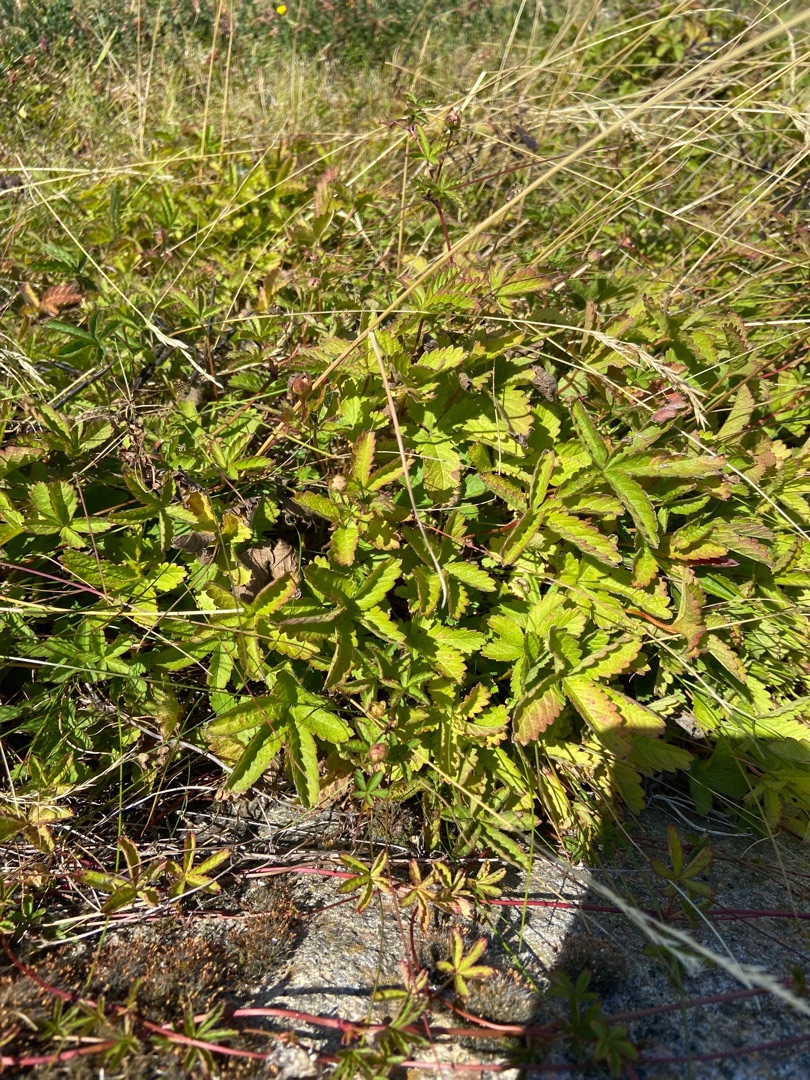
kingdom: Plantae
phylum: Tracheophyta
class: Magnoliopsida
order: Rosales
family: Rosaceae
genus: Potentilla
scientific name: Potentilla reptans
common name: Krybende potentil
